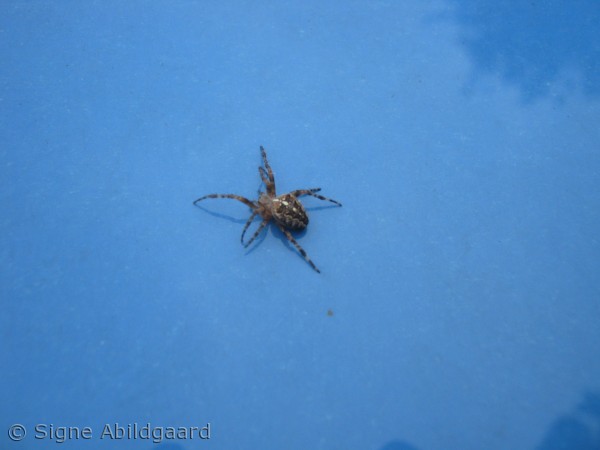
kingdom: Animalia
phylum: Arthropoda
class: Arachnida
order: Araneae
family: Araneidae
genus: Araneus
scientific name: Araneus diadematus
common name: Korsedderkop
